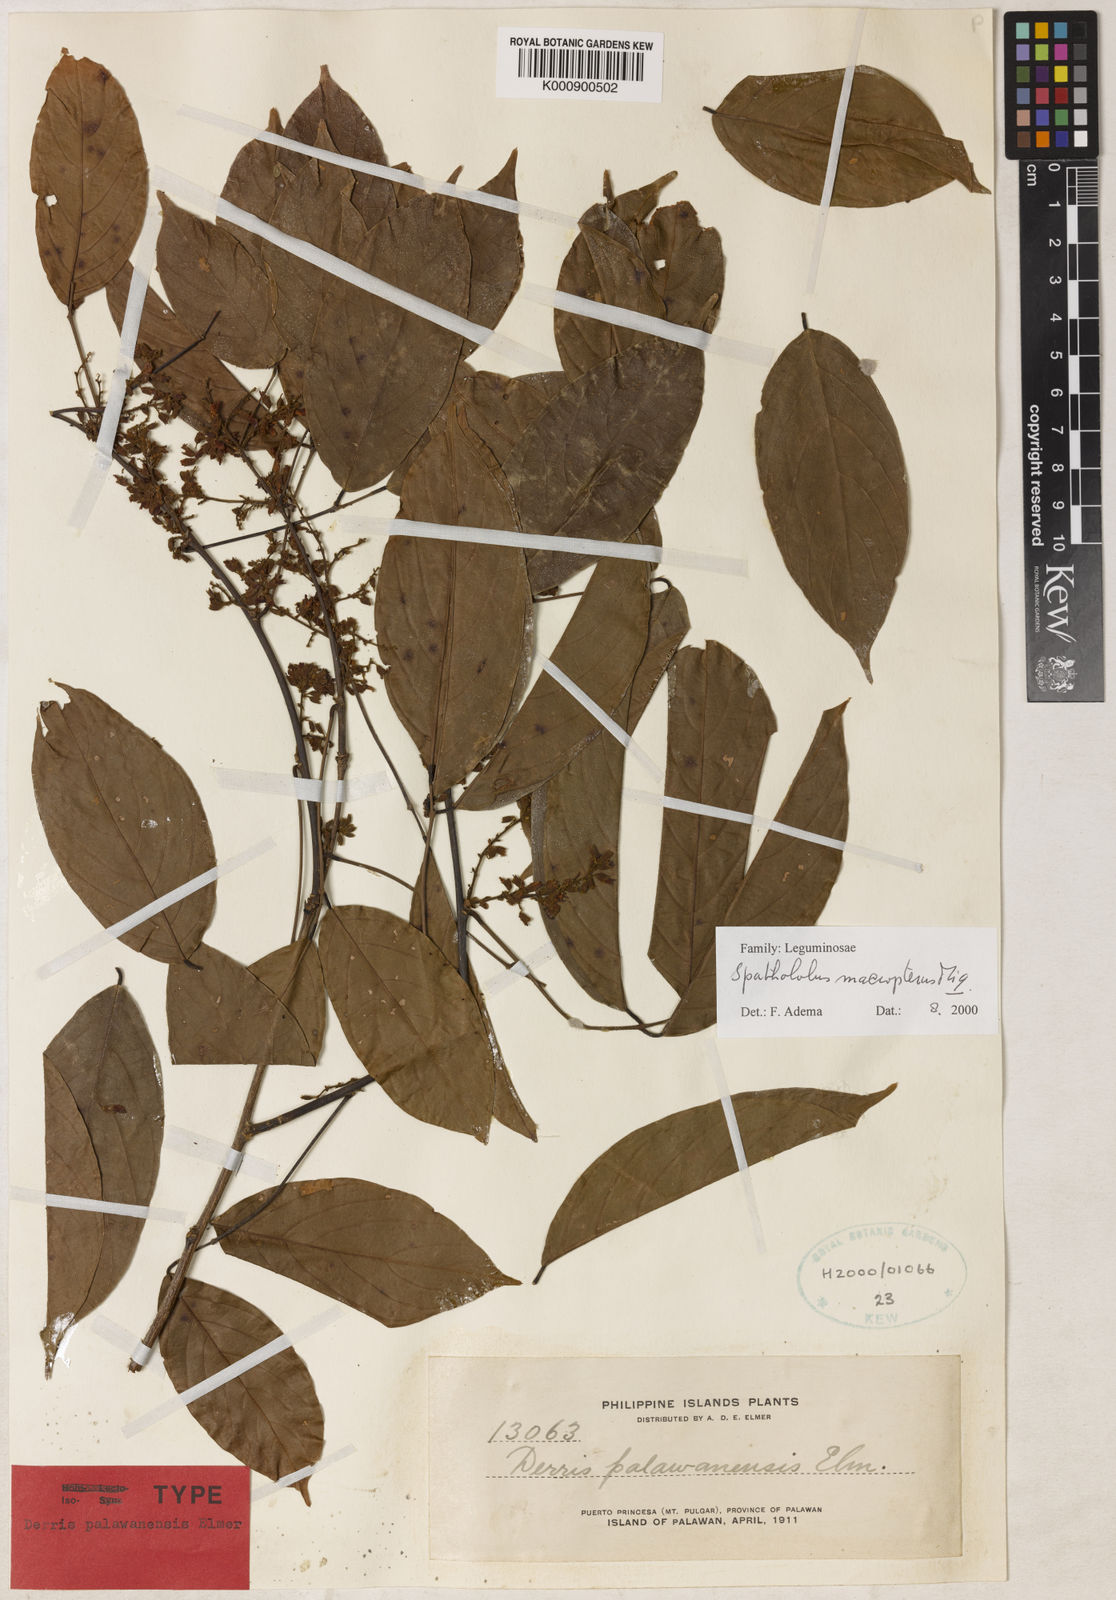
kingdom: Plantae
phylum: Tracheophyta
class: Magnoliopsida
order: Fabales
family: Fabaceae
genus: Spatholobus
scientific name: Spatholobus macropterus
